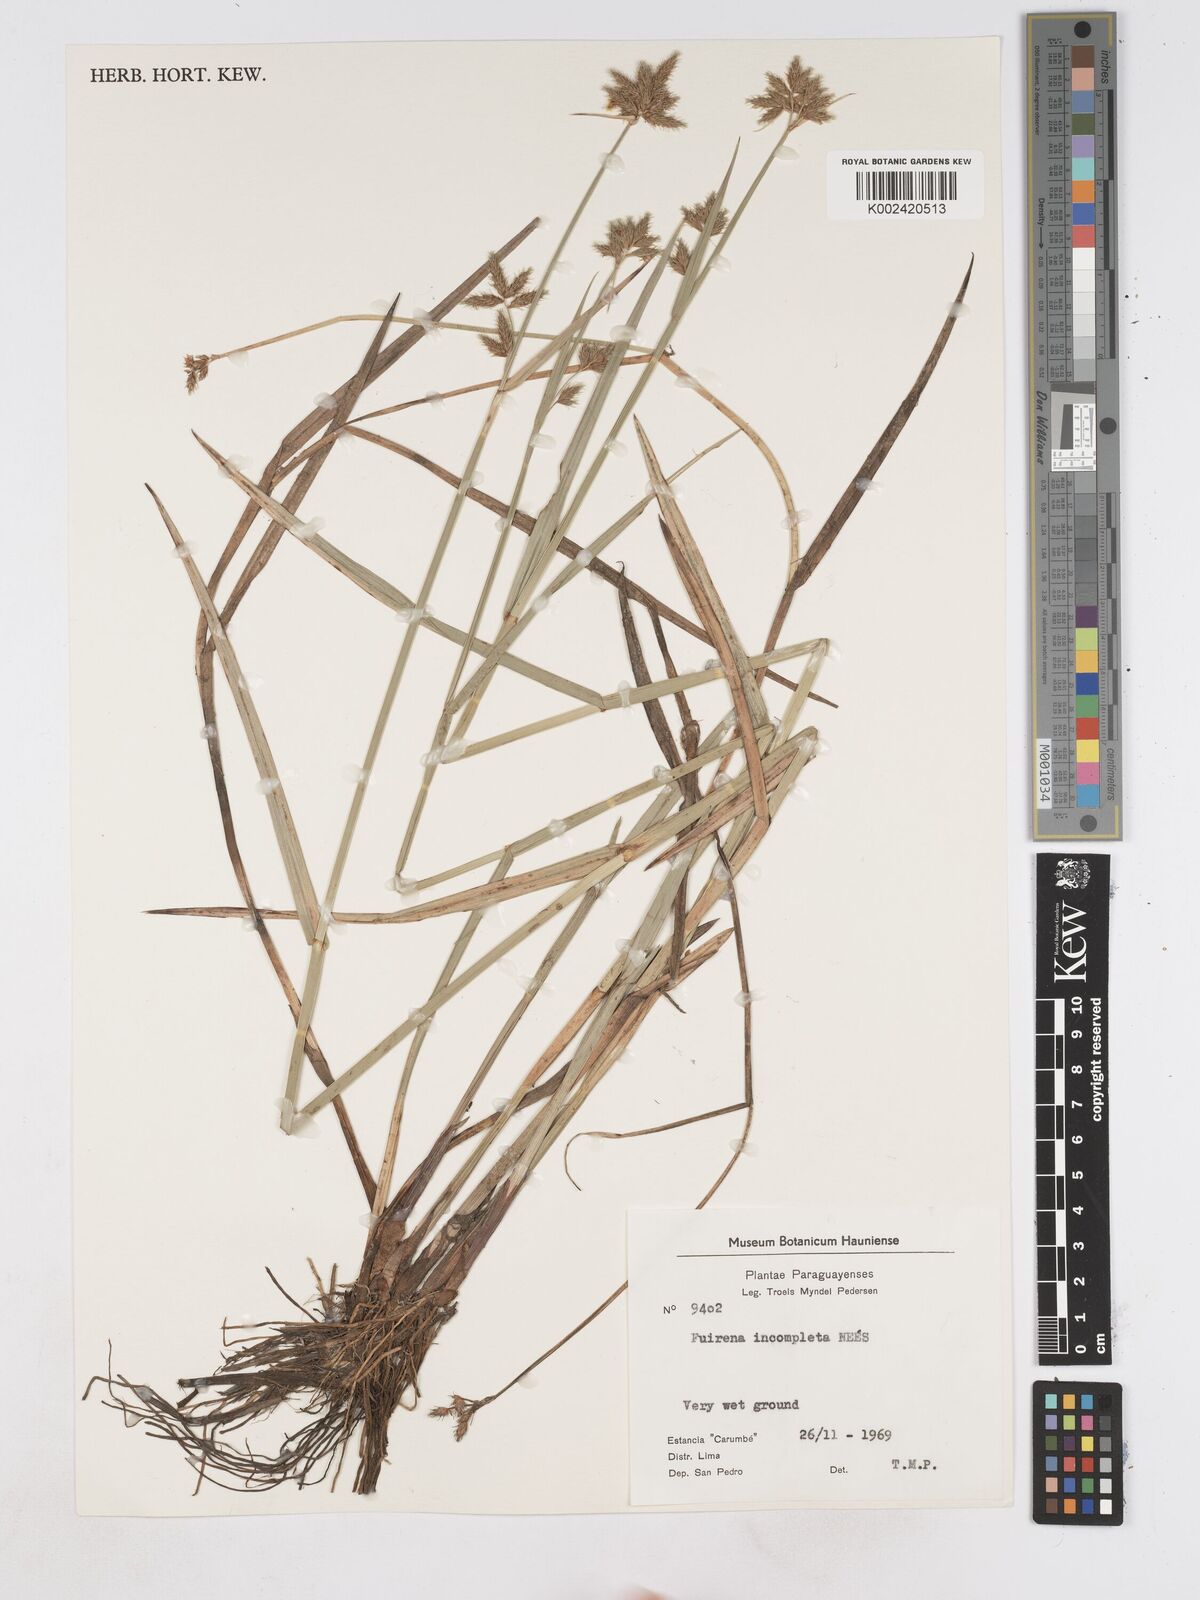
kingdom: Plantae
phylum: Tracheophyta
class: Liliopsida
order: Poales
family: Cyperaceae
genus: Fuirena
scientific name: Fuirena incompleta
